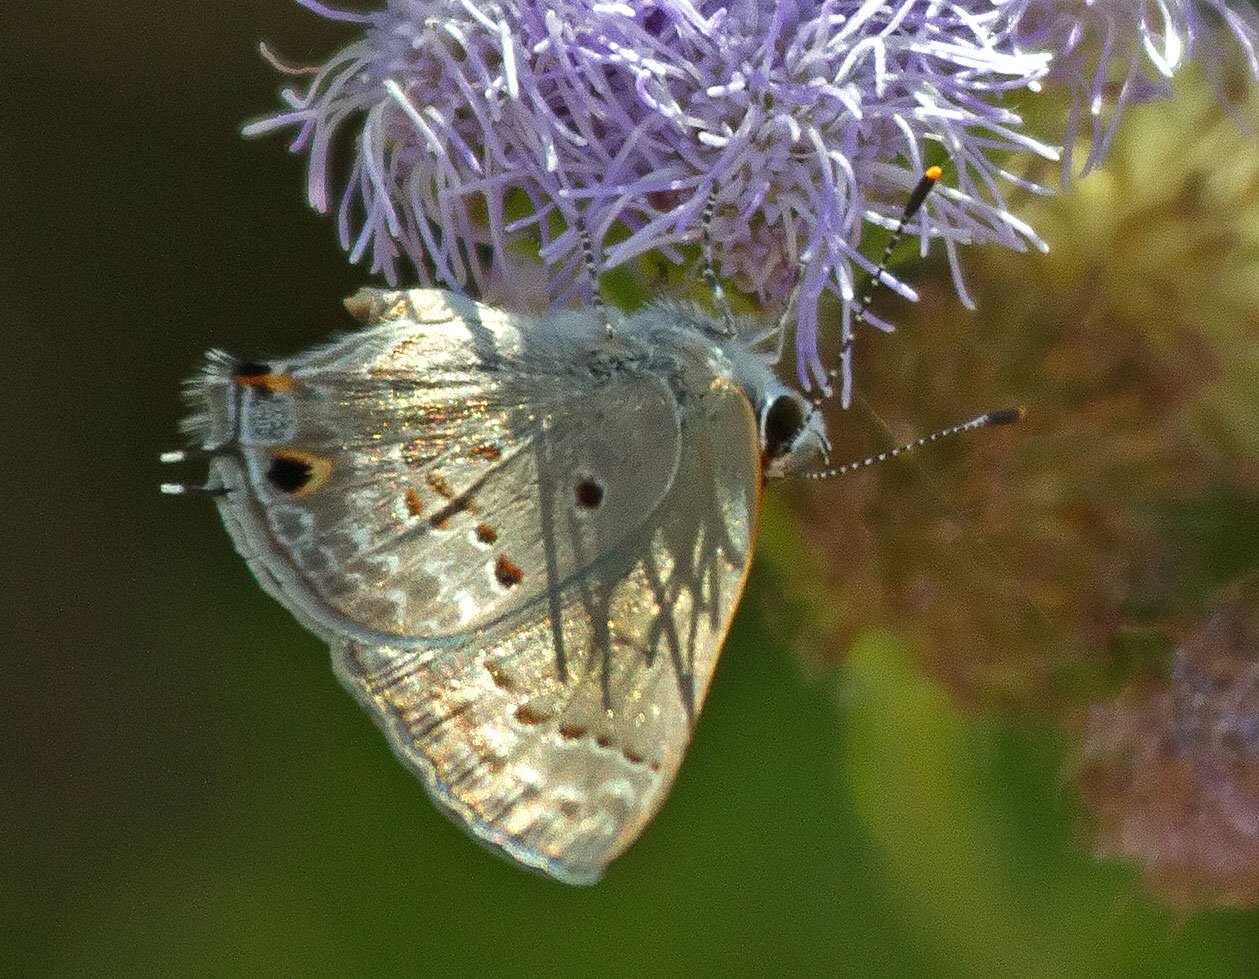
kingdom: Animalia
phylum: Arthropoda
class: Insecta
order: Lepidoptera
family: Lycaenidae
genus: Callicista
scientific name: Callicista columella
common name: Mallow Scrub-Hairstreak
